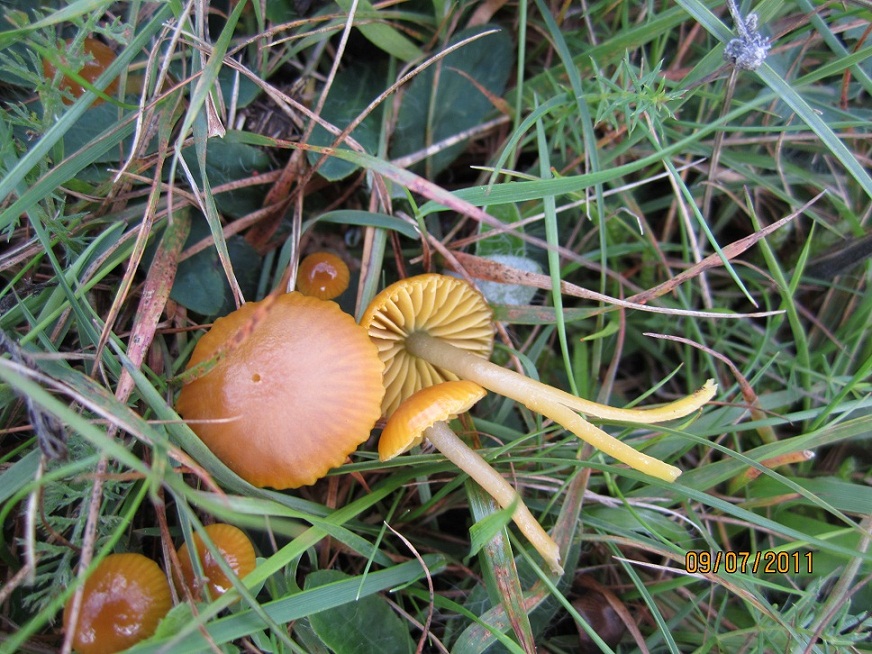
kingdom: Fungi
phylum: Basidiomycota
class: Agaricomycetes
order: Agaricales
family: Hygrophoraceae
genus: Gliophorus
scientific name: Gliophorus psittacinus
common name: papegøje-vokshat
